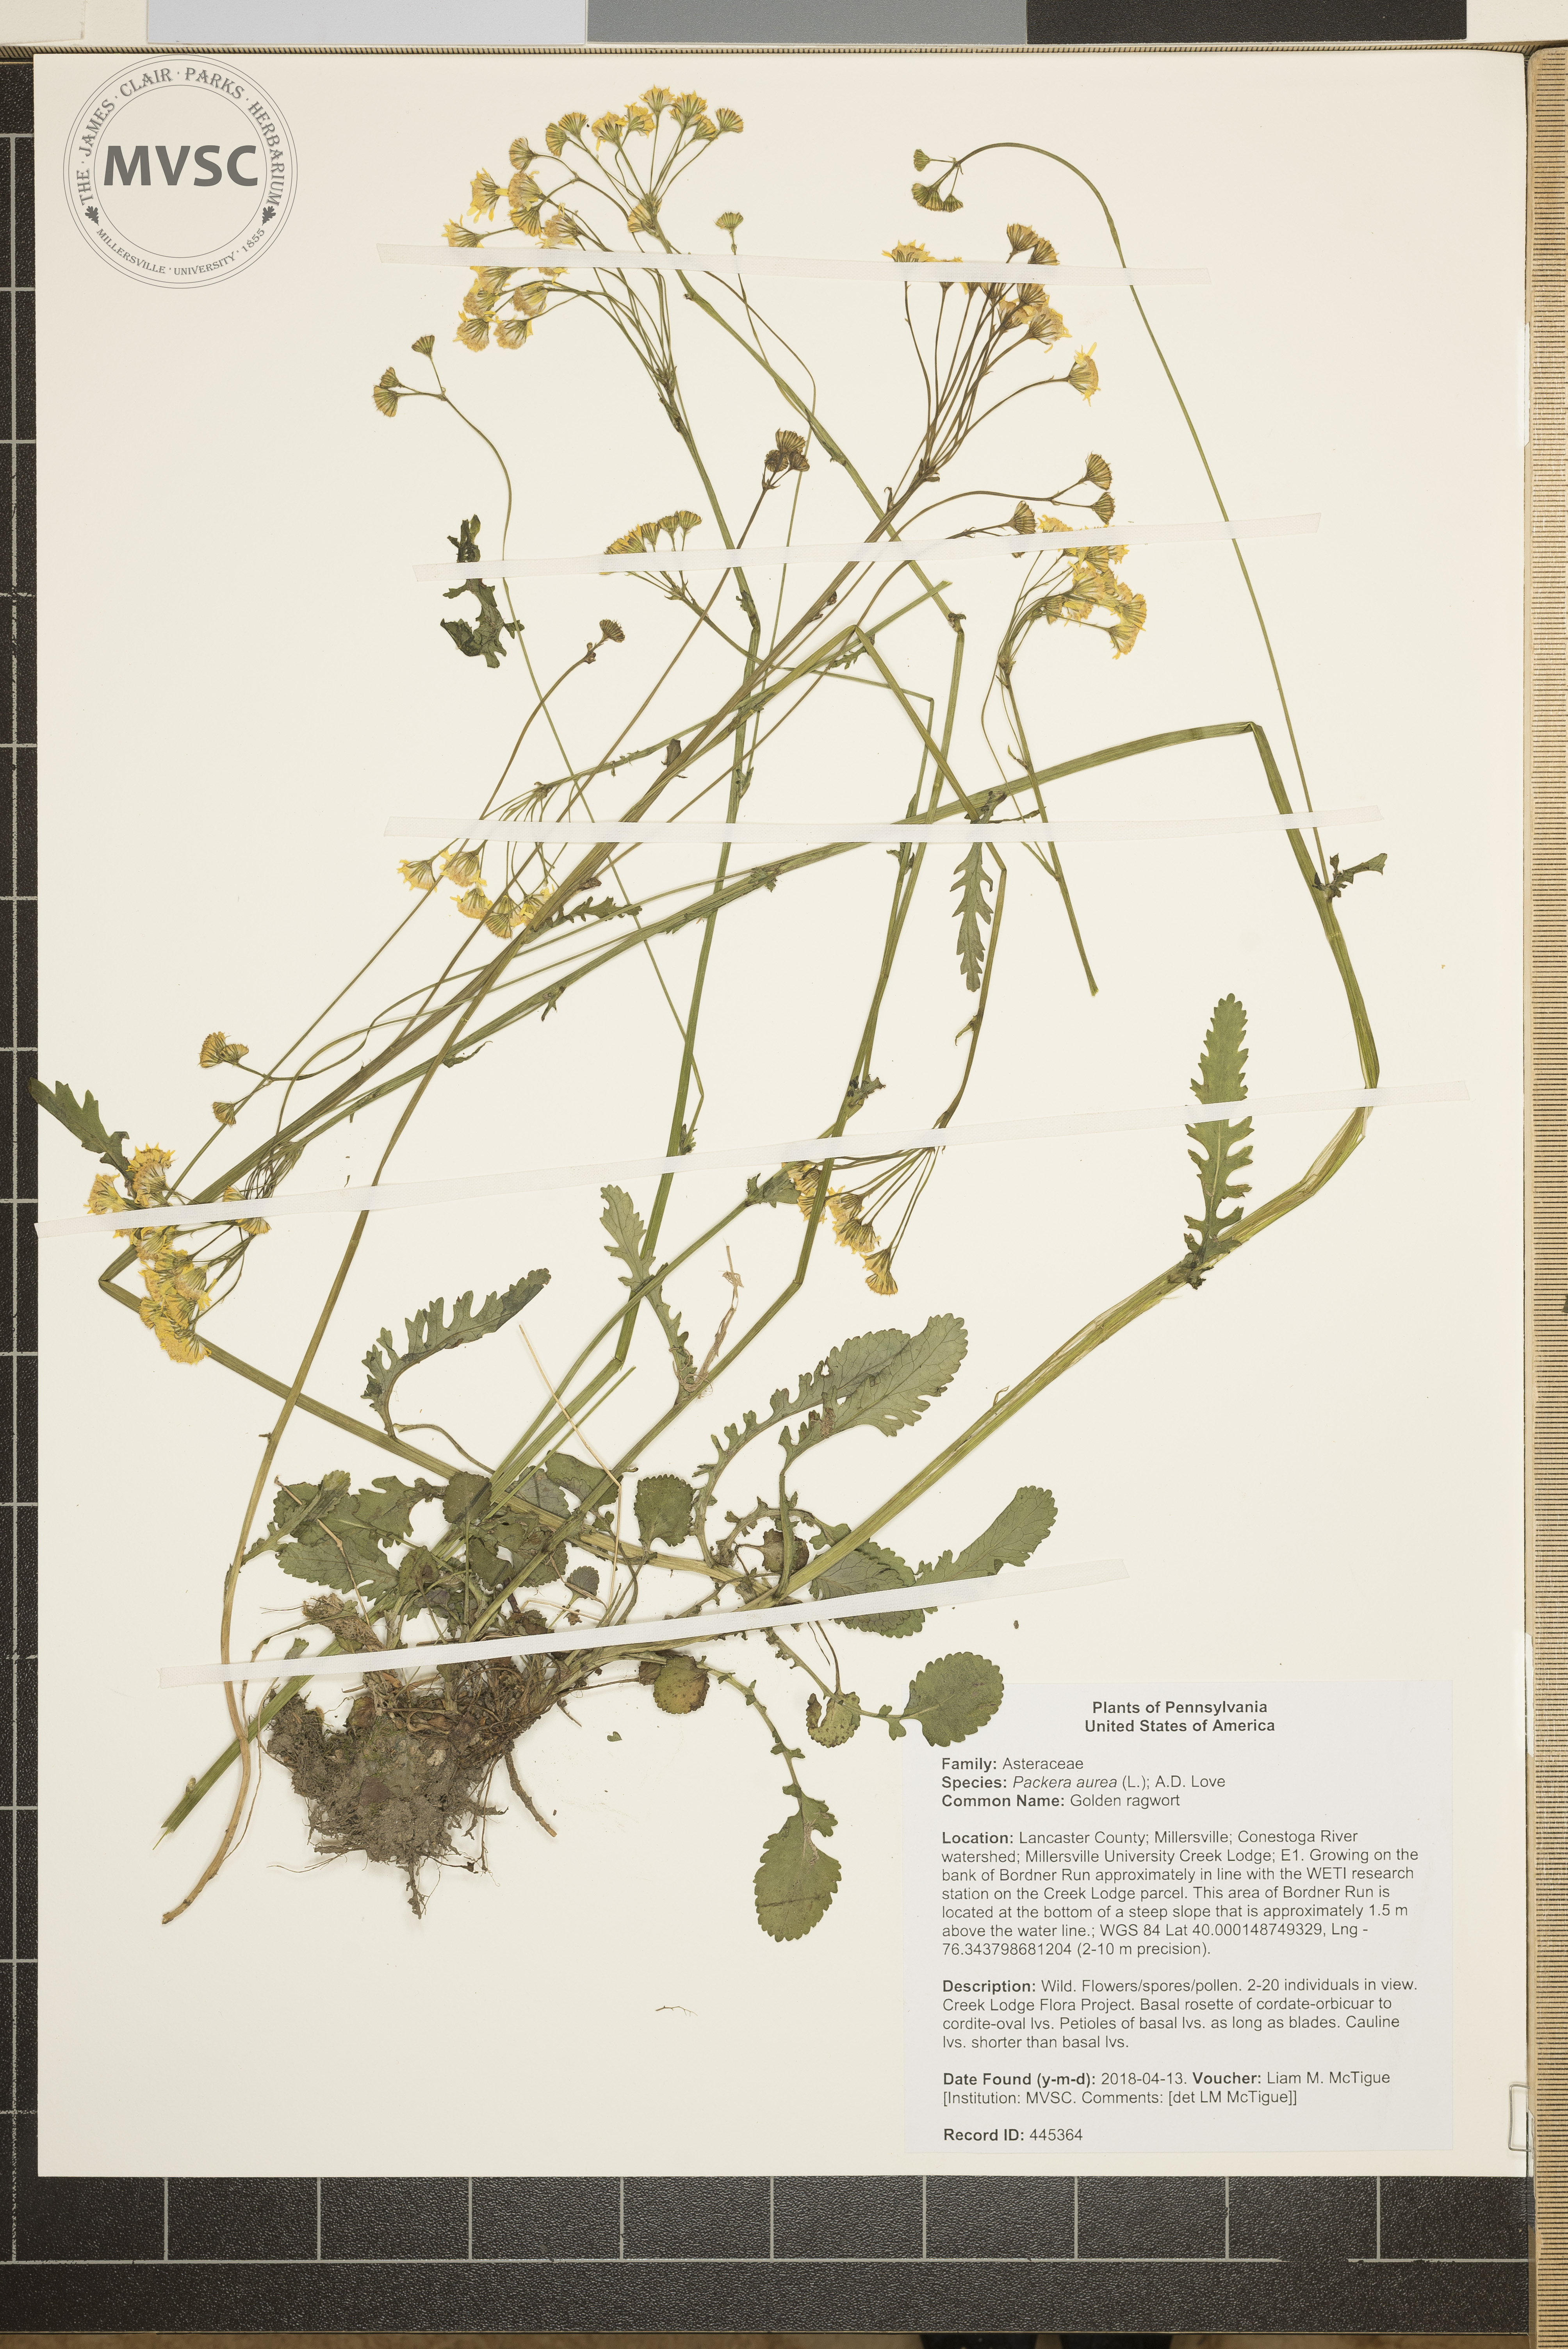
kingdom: Plantae
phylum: Tracheophyta
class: Magnoliopsida
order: Asterales
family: Asteraceae
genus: Packera
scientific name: Packera aurea
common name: Golden ragwort
